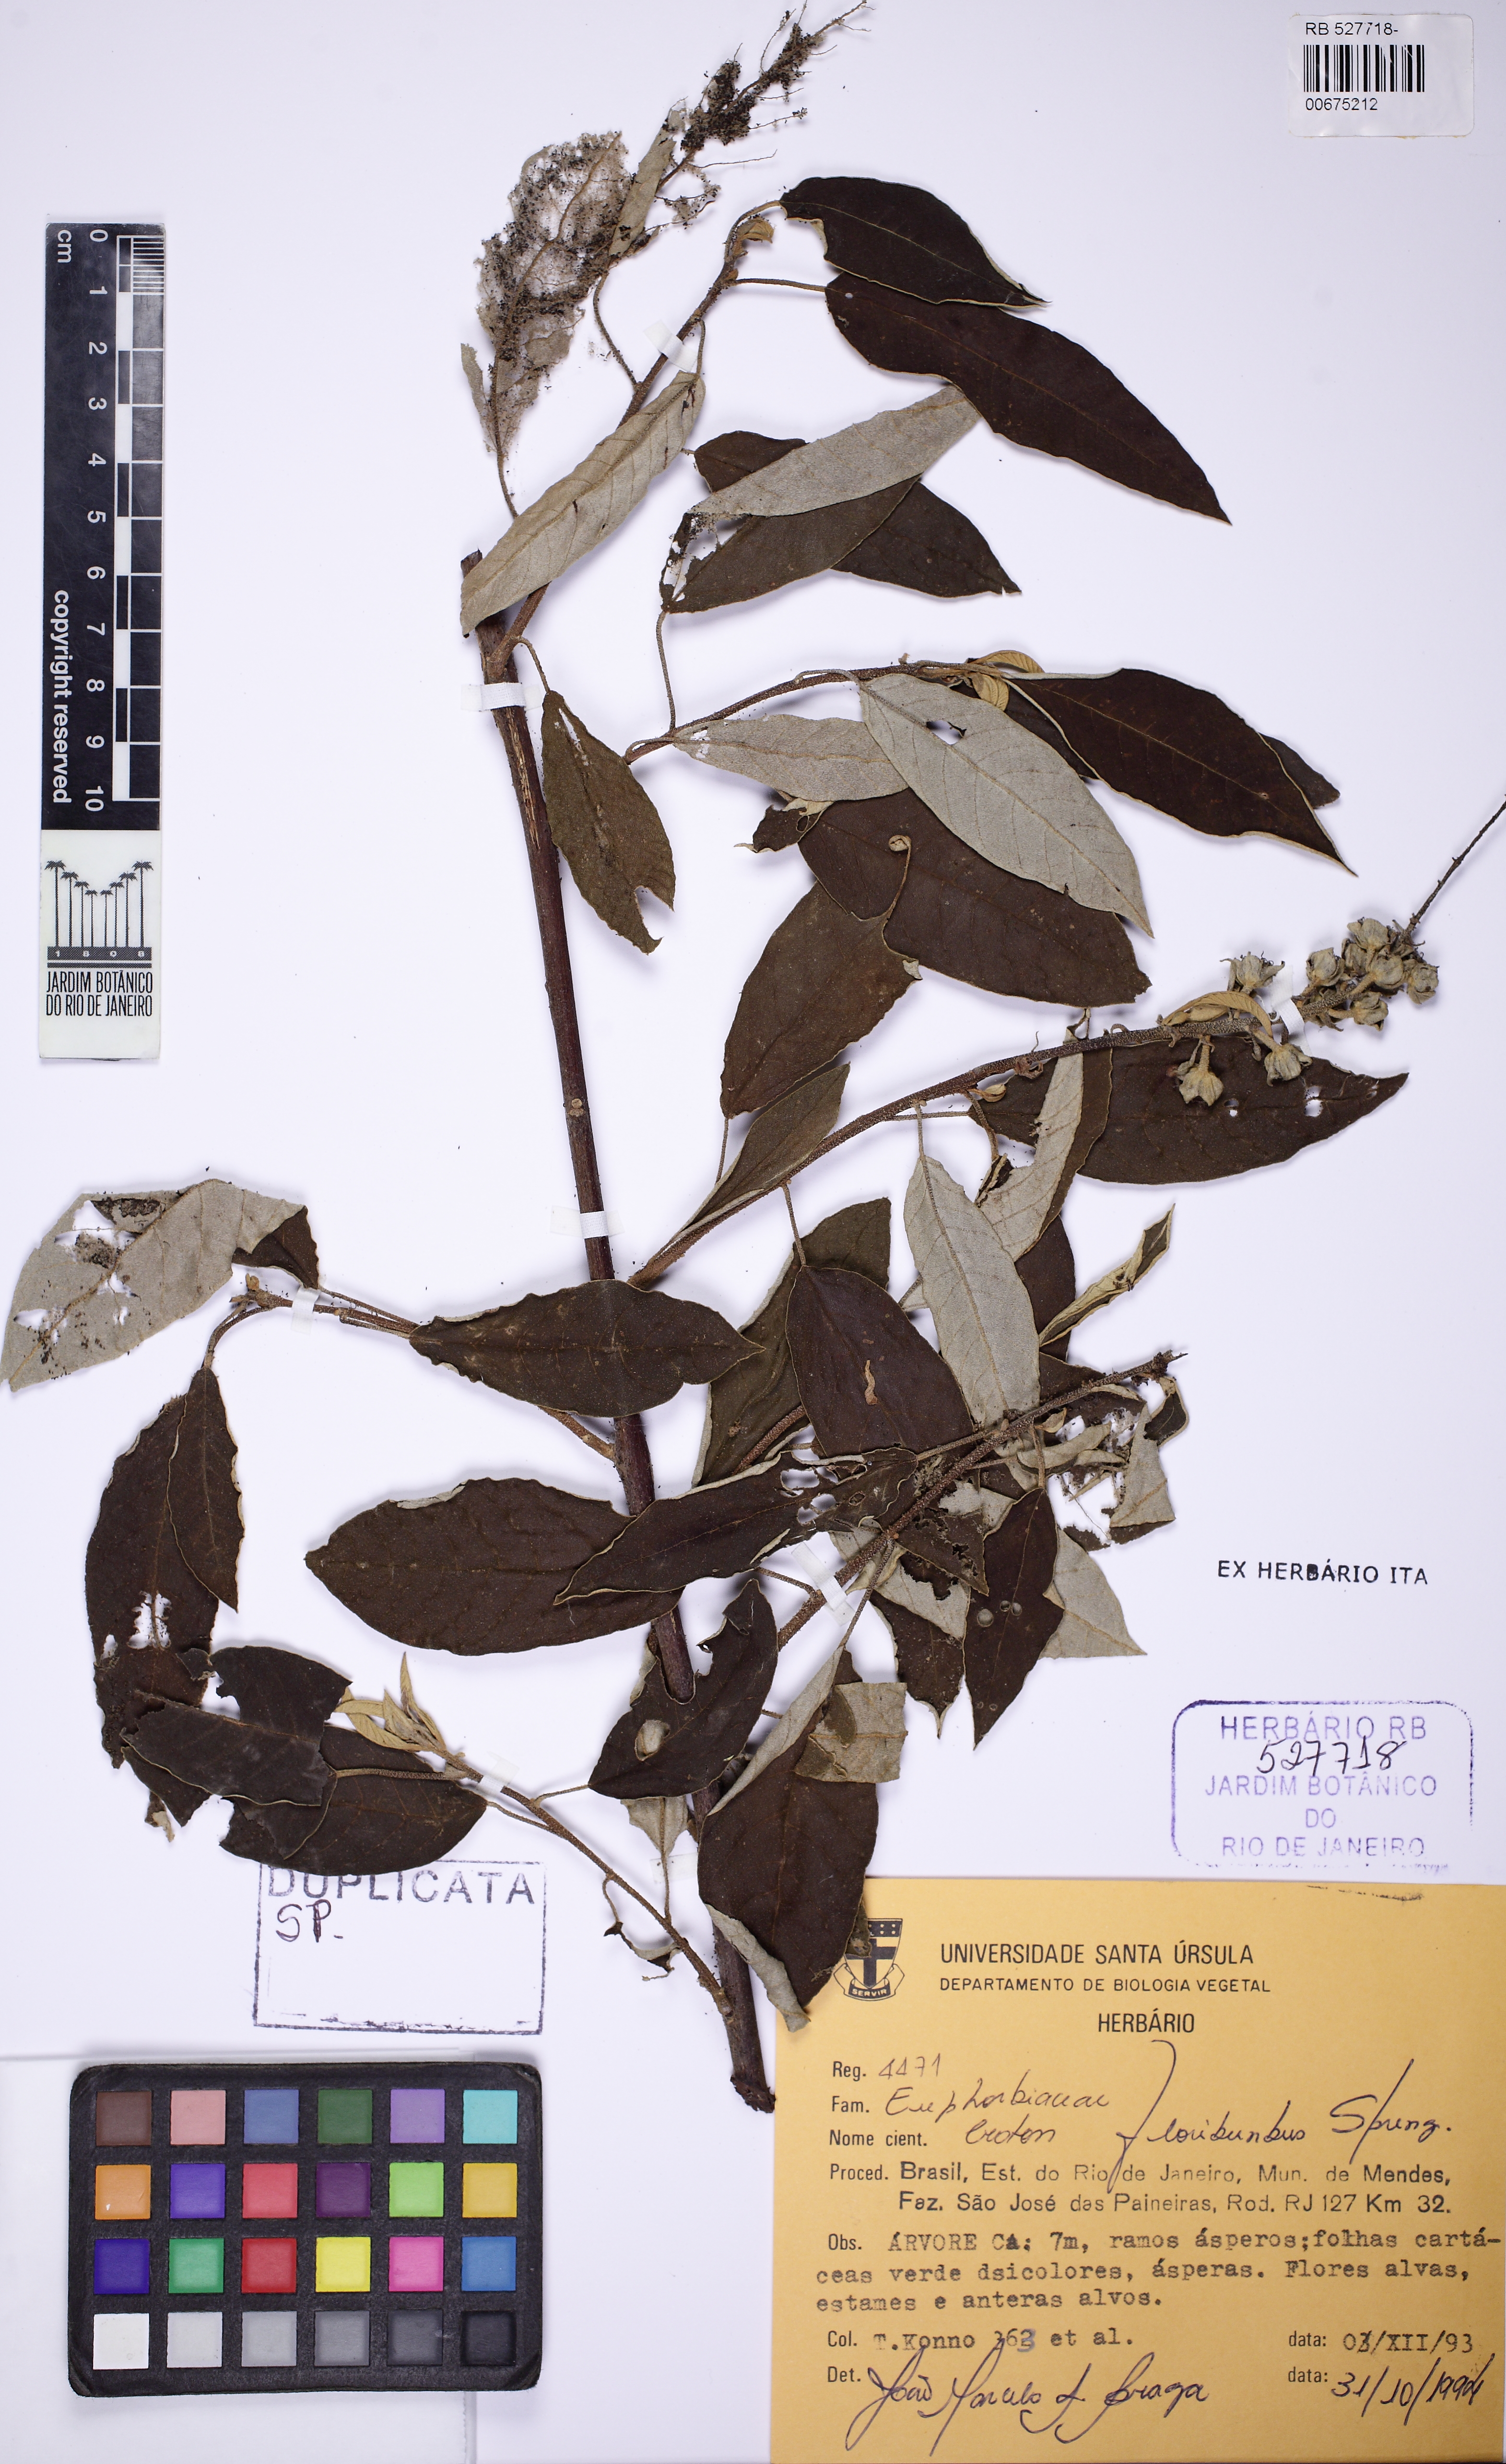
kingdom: Plantae
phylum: Tracheophyta
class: Magnoliopsida
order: Malpighiales
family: Euphorbiaceae
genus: Croton
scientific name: Croton floribundus
